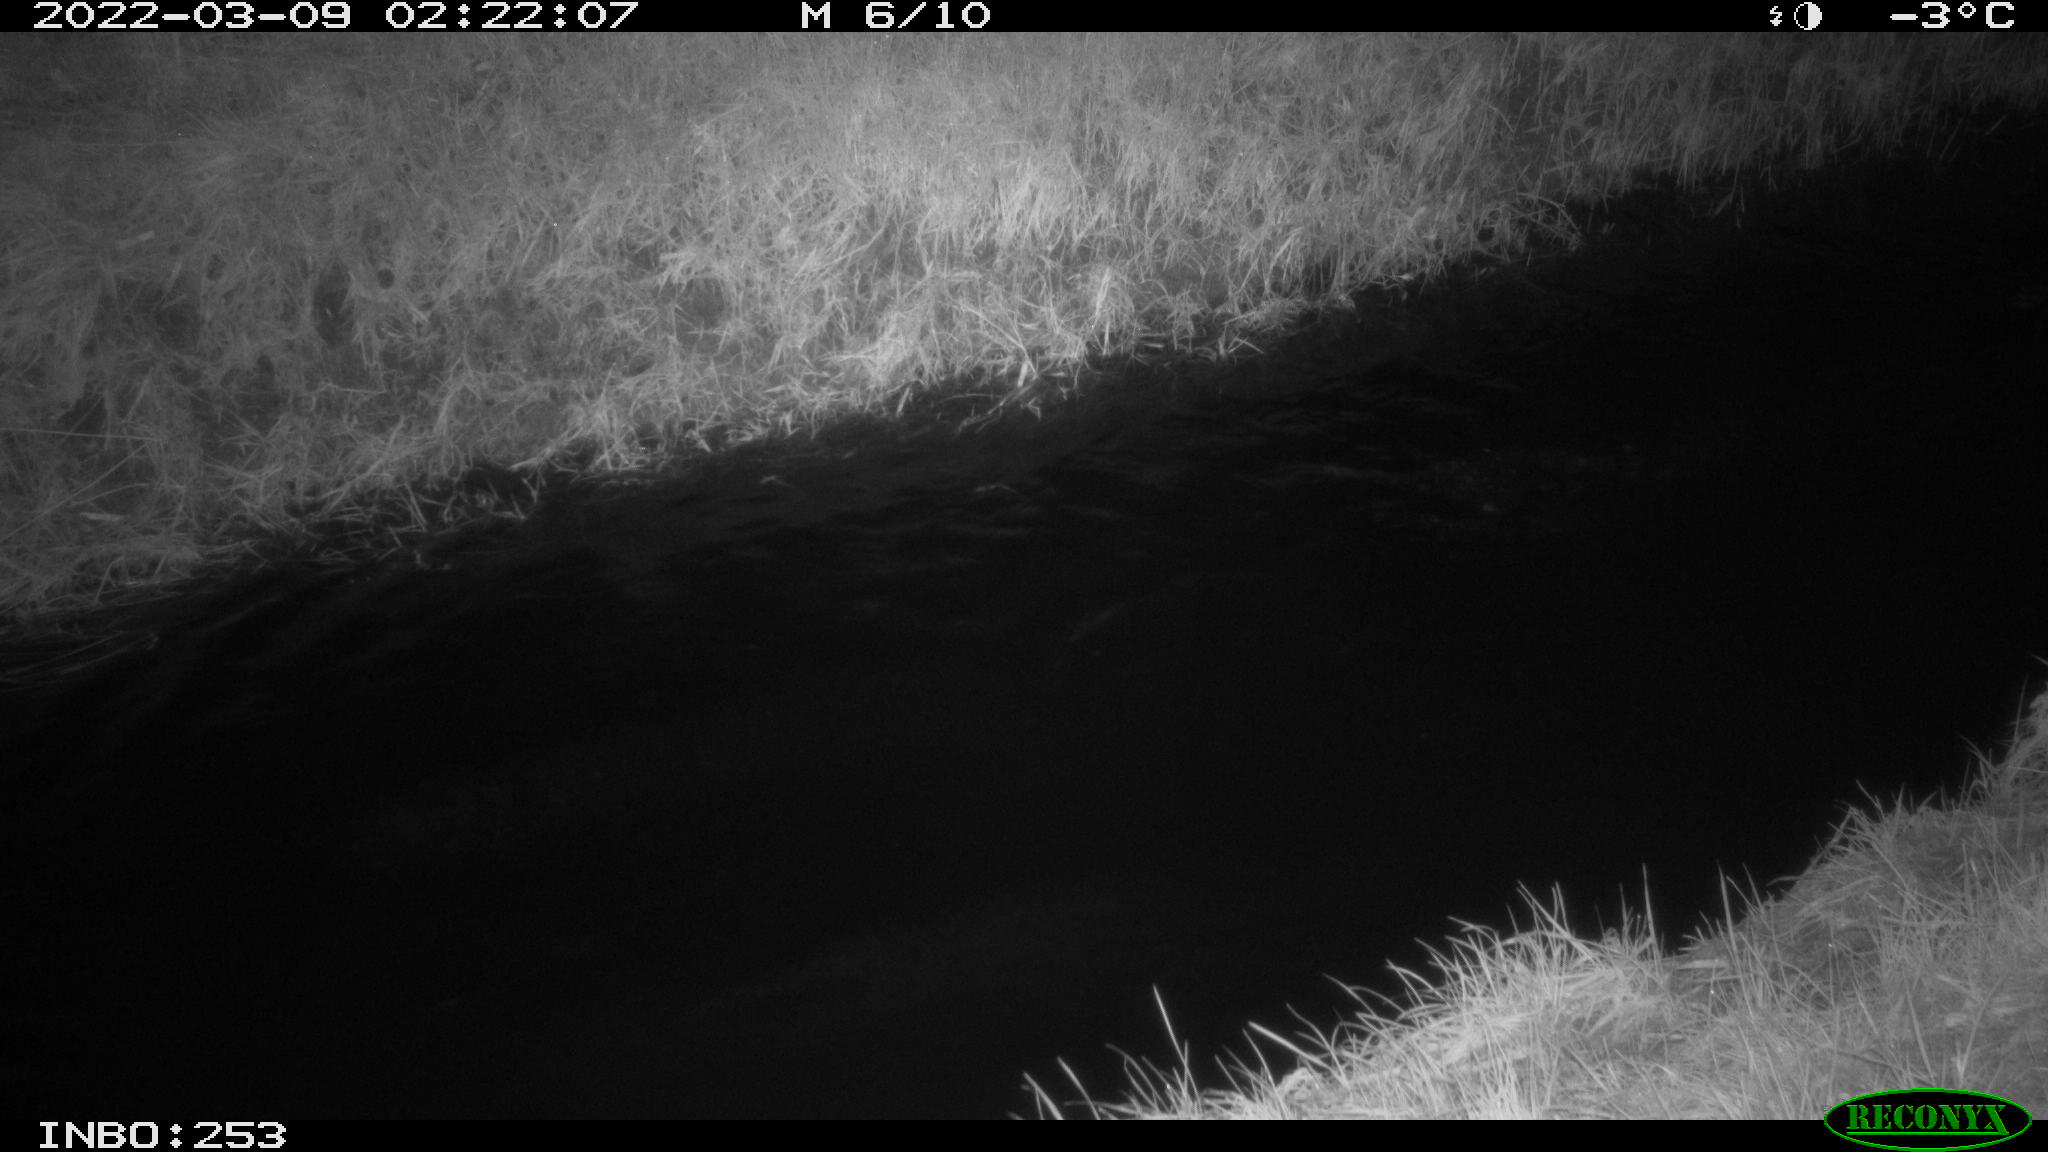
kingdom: Animalia
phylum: Chordata
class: Mammalia
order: Carnivora
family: Canidae
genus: Vulpes
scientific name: Vulpes vulpes
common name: Red fox
